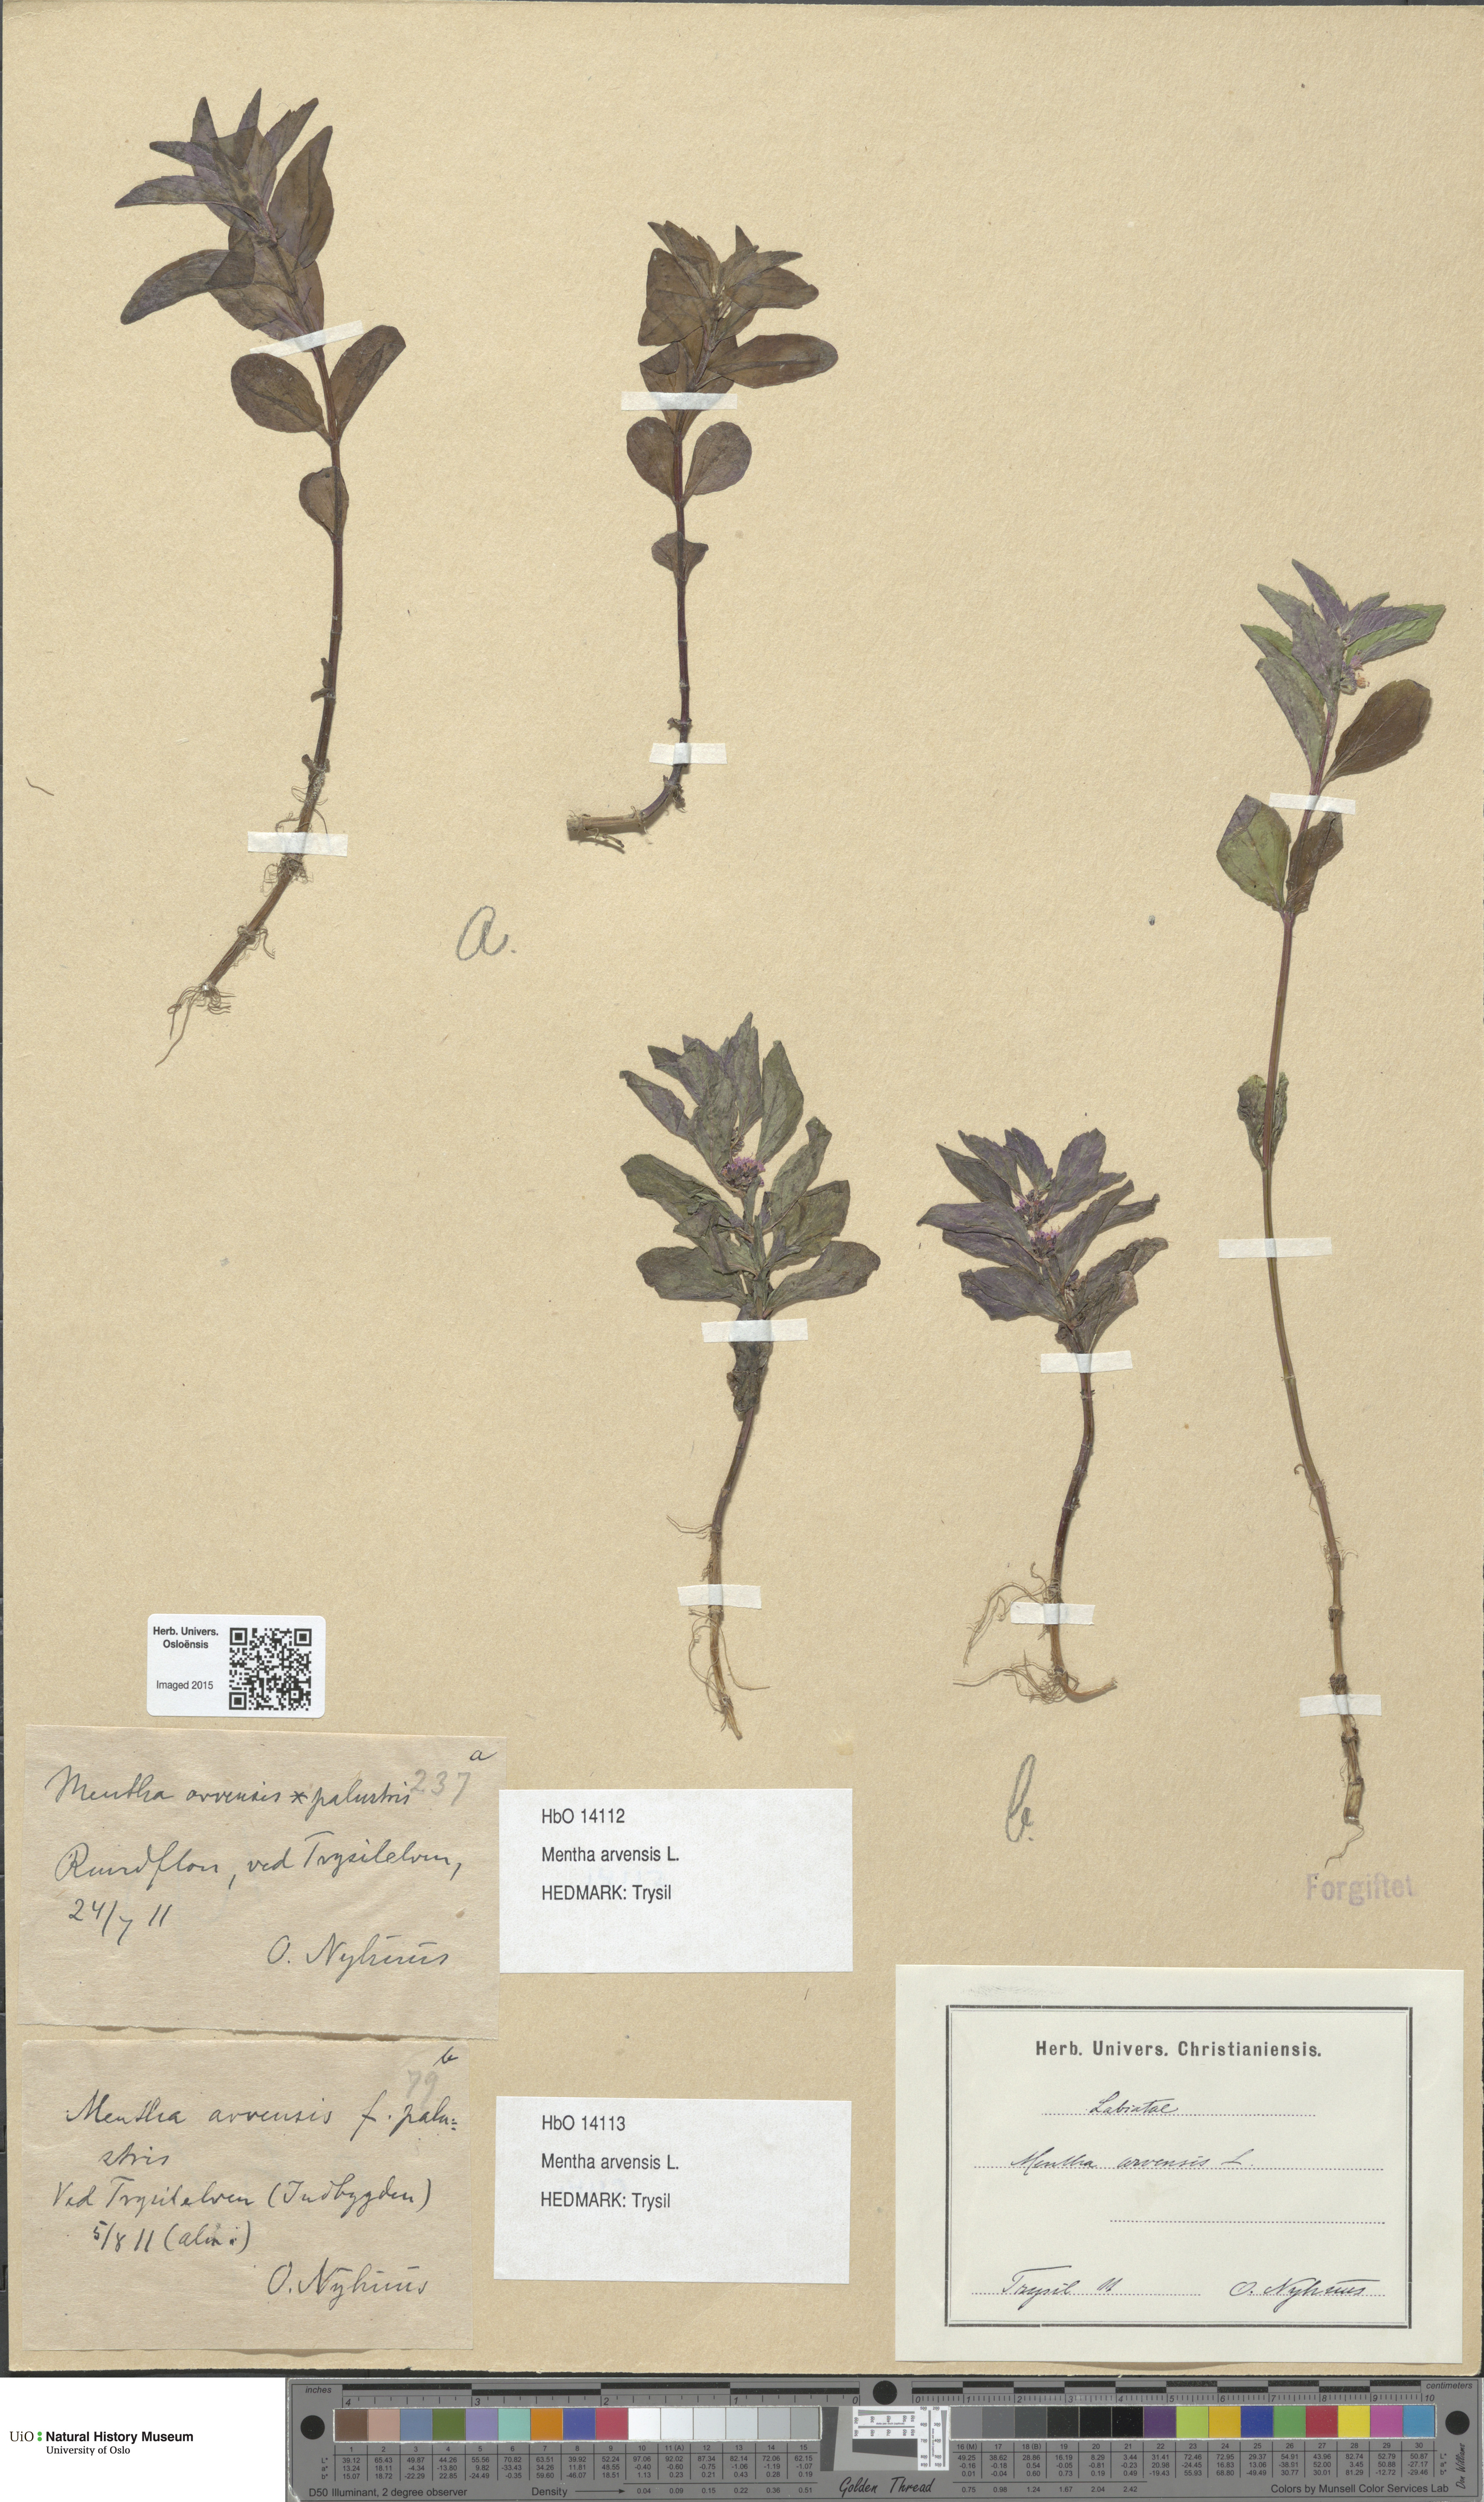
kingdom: Plantae
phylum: Tracheophyta
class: Magnoliopsida
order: Lamiales
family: Lamiaceae
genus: Mentha
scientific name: Mentha arvensis
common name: Corn mint
